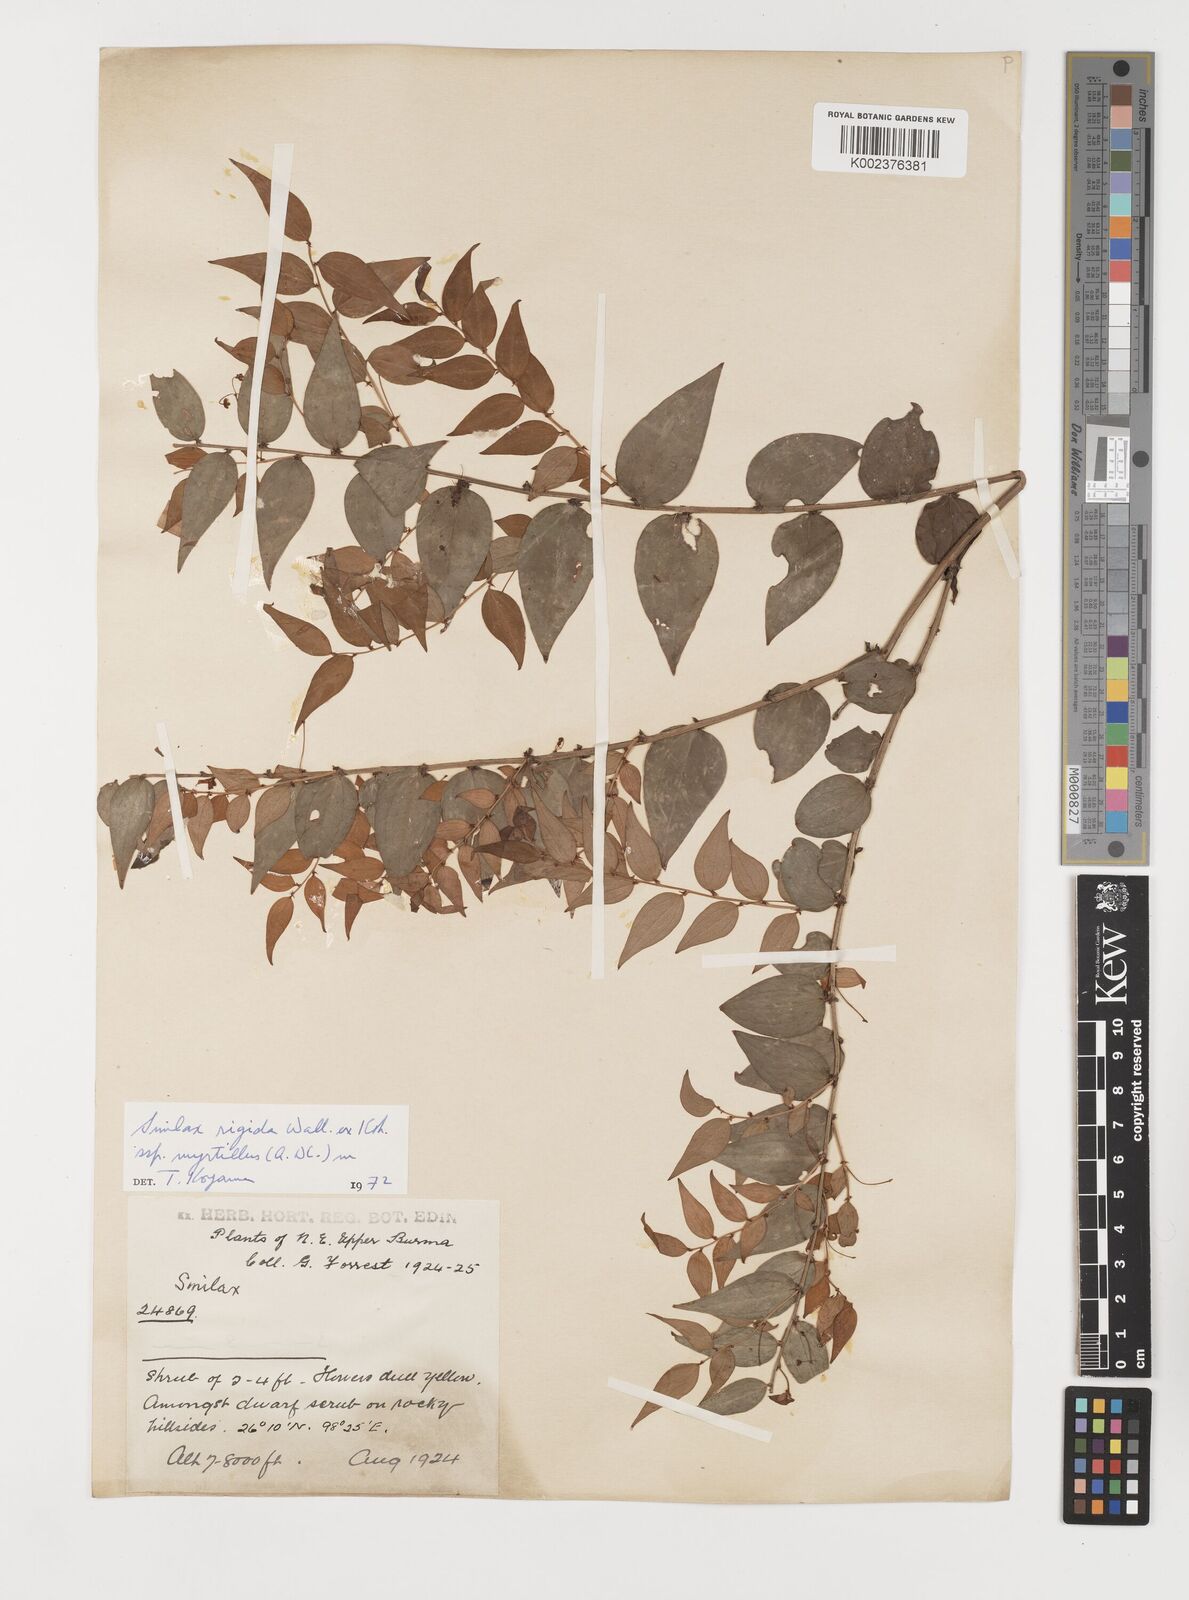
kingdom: Plantae
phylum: Tracheophyta
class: Liliopsida
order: Liliales
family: Smilacaceae
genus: Smilax
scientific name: Smilax myrtillus
